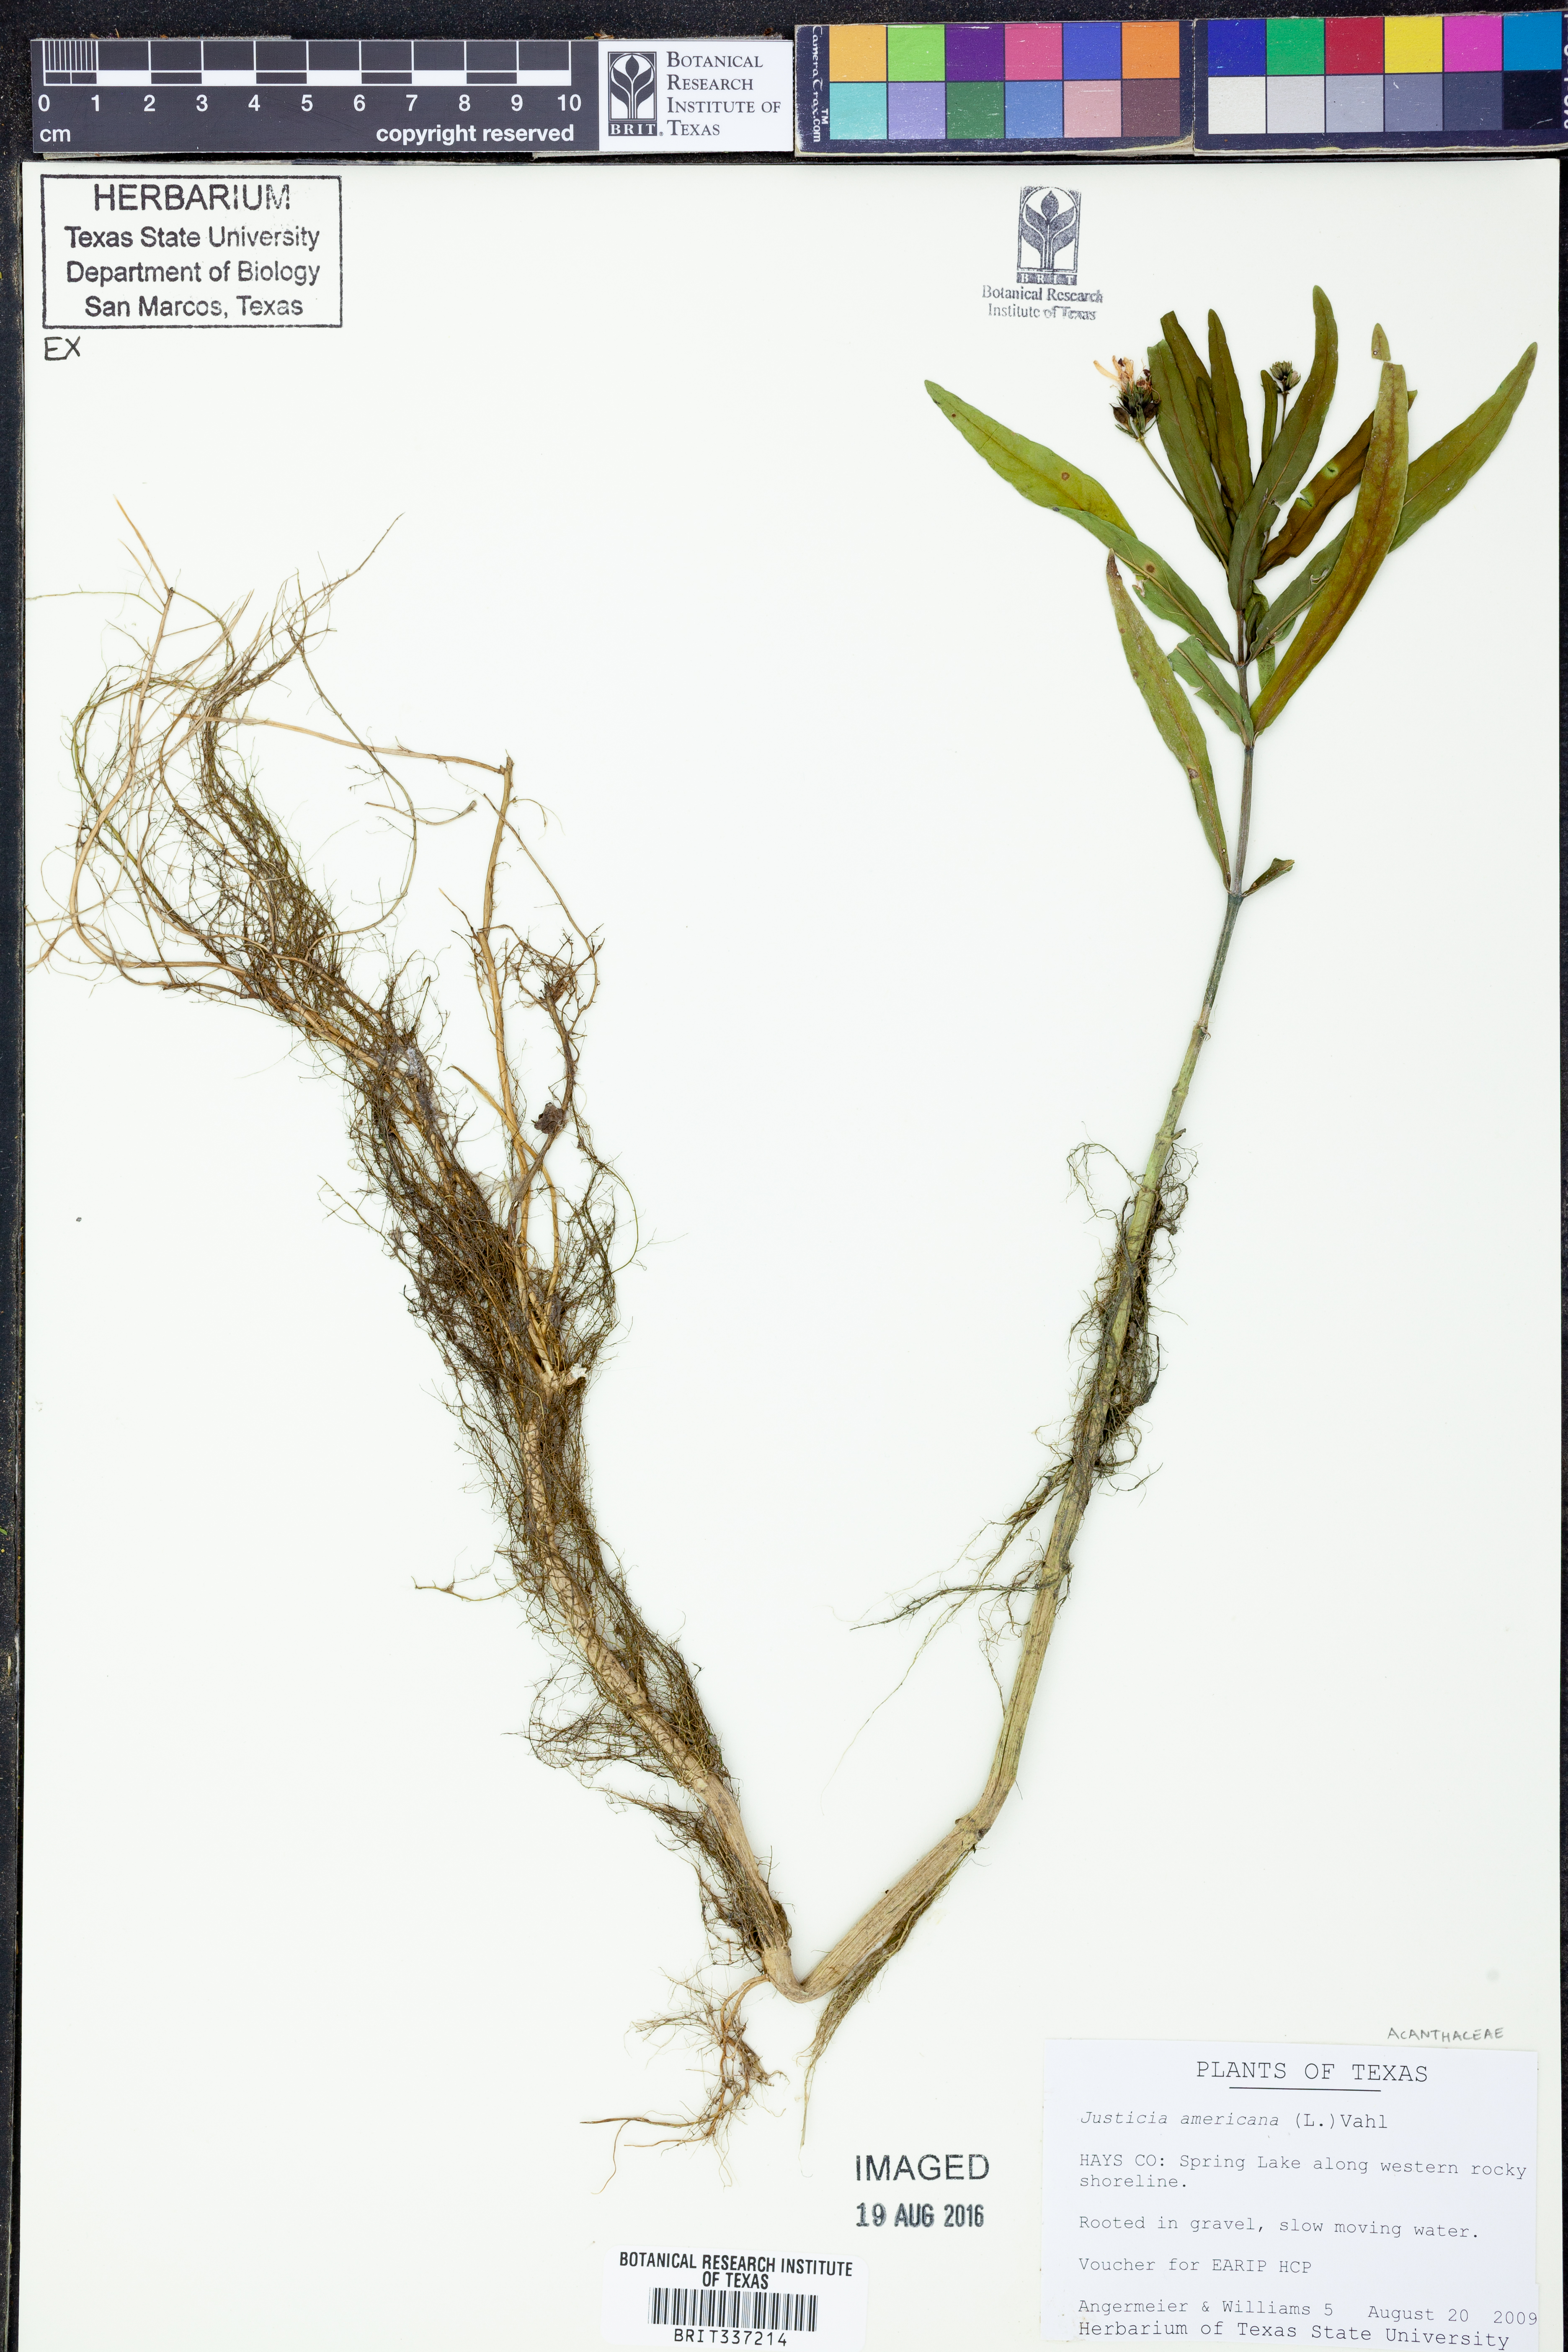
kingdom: Plantae
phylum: Tracheophyta
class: Magnoliopsida
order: Lamiales
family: Acanthaceae
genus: Dianthera
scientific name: Dianthera americana
